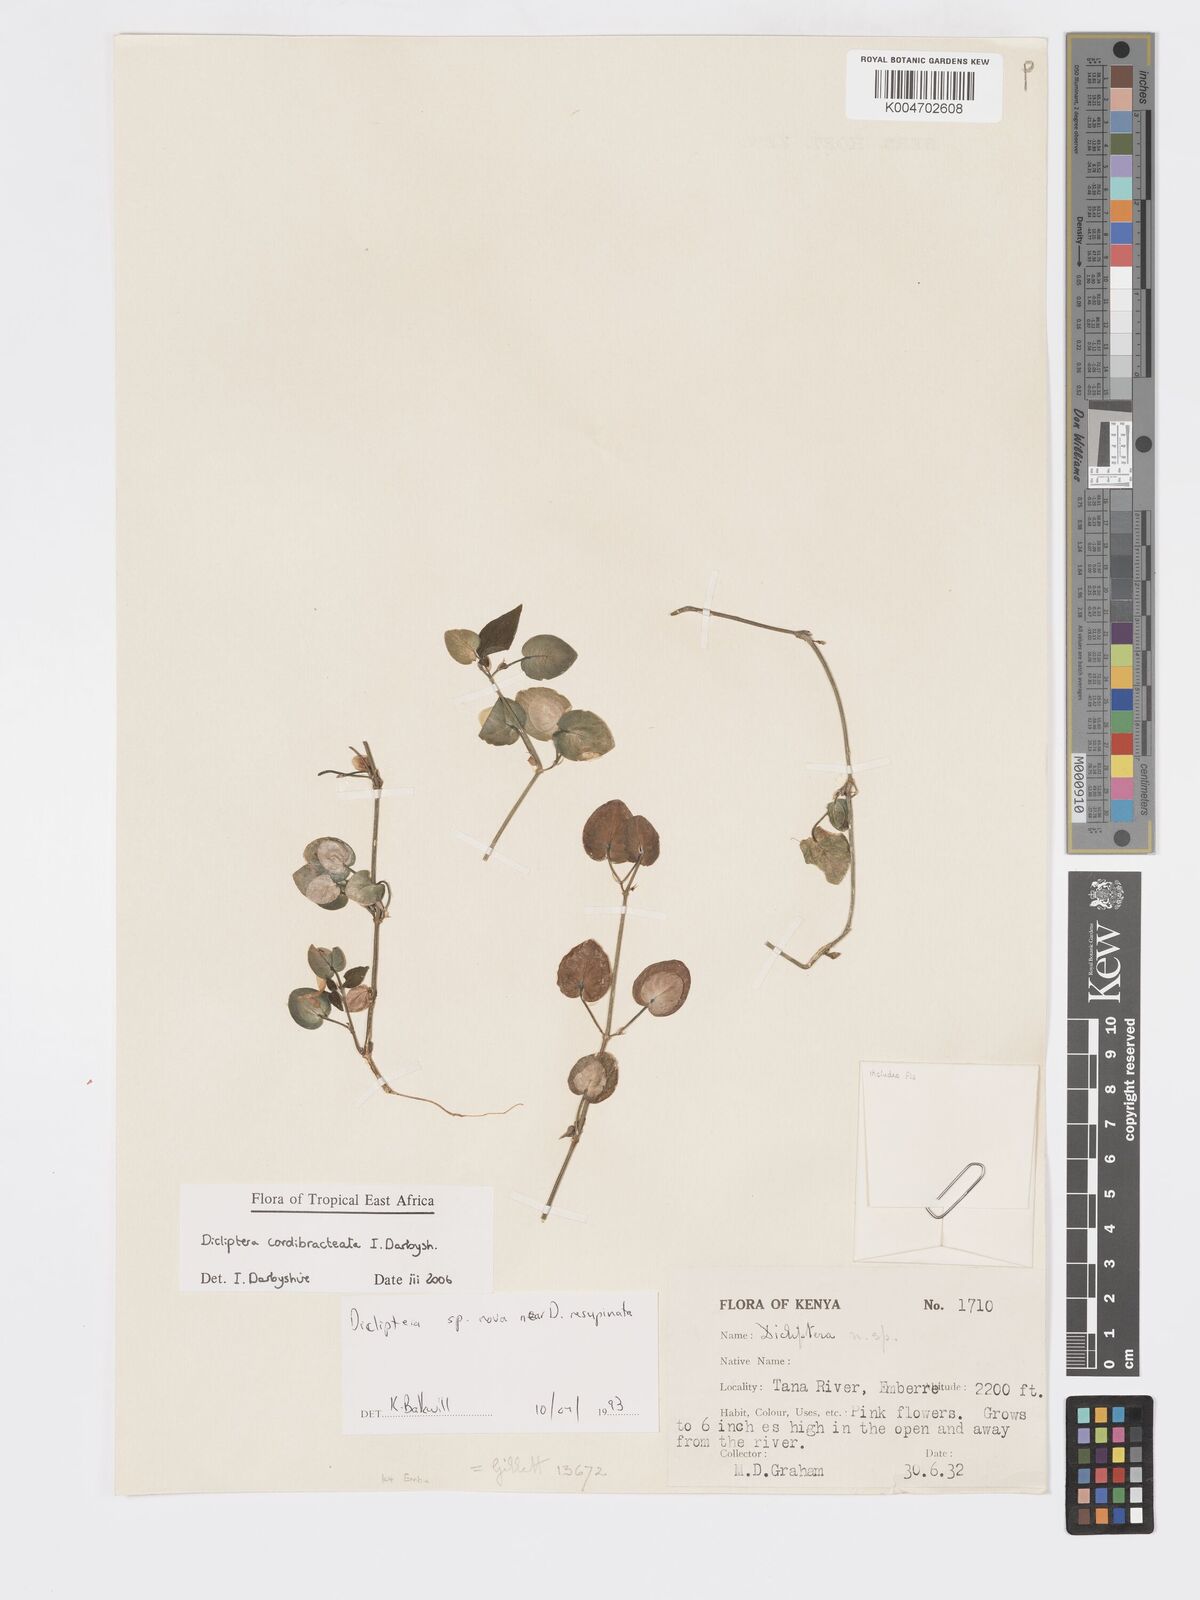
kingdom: Plantae
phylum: Tracheophyta
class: Magnoliopsida
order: Lamiales
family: Acanthaceae
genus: Dicliptera
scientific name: Dicliptera cordibracteata
